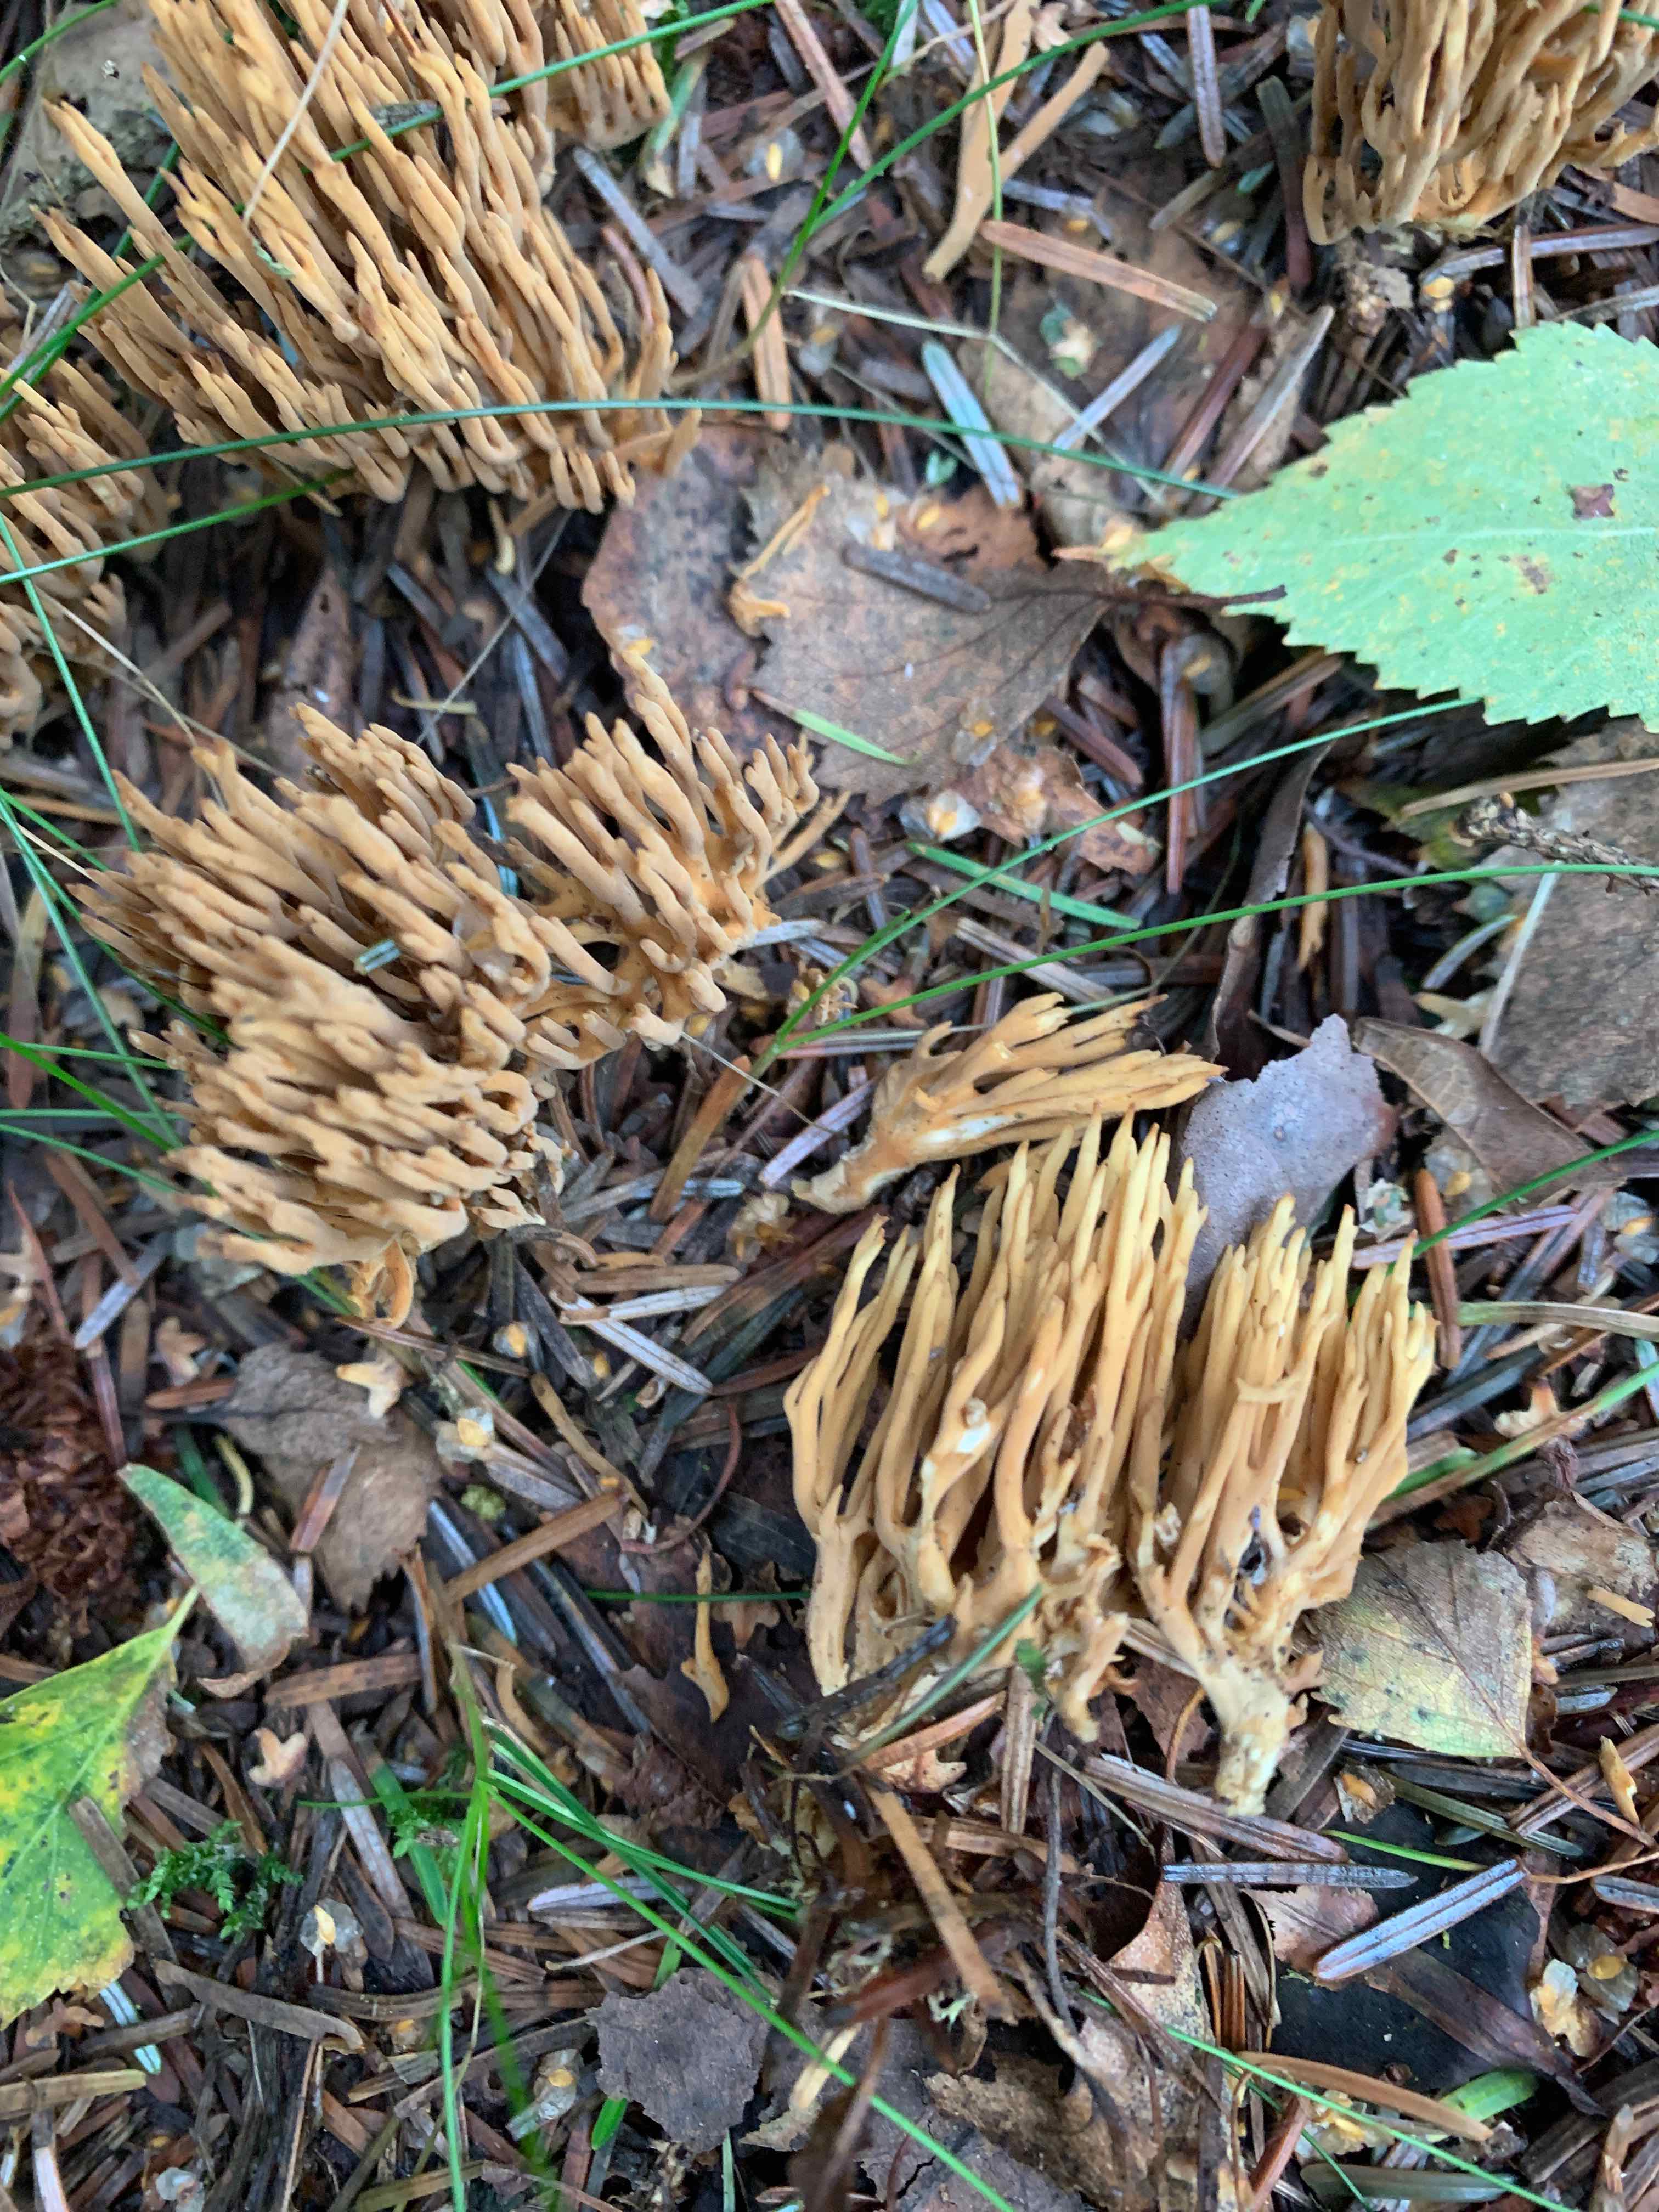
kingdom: Fungi
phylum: Basidiomycota
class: Agaricomycetes
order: Gomphales
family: Gomphaceae
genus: Phaeoclavulina
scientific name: Phaeoclavulina eumorpha
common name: gran-koralsvamp
